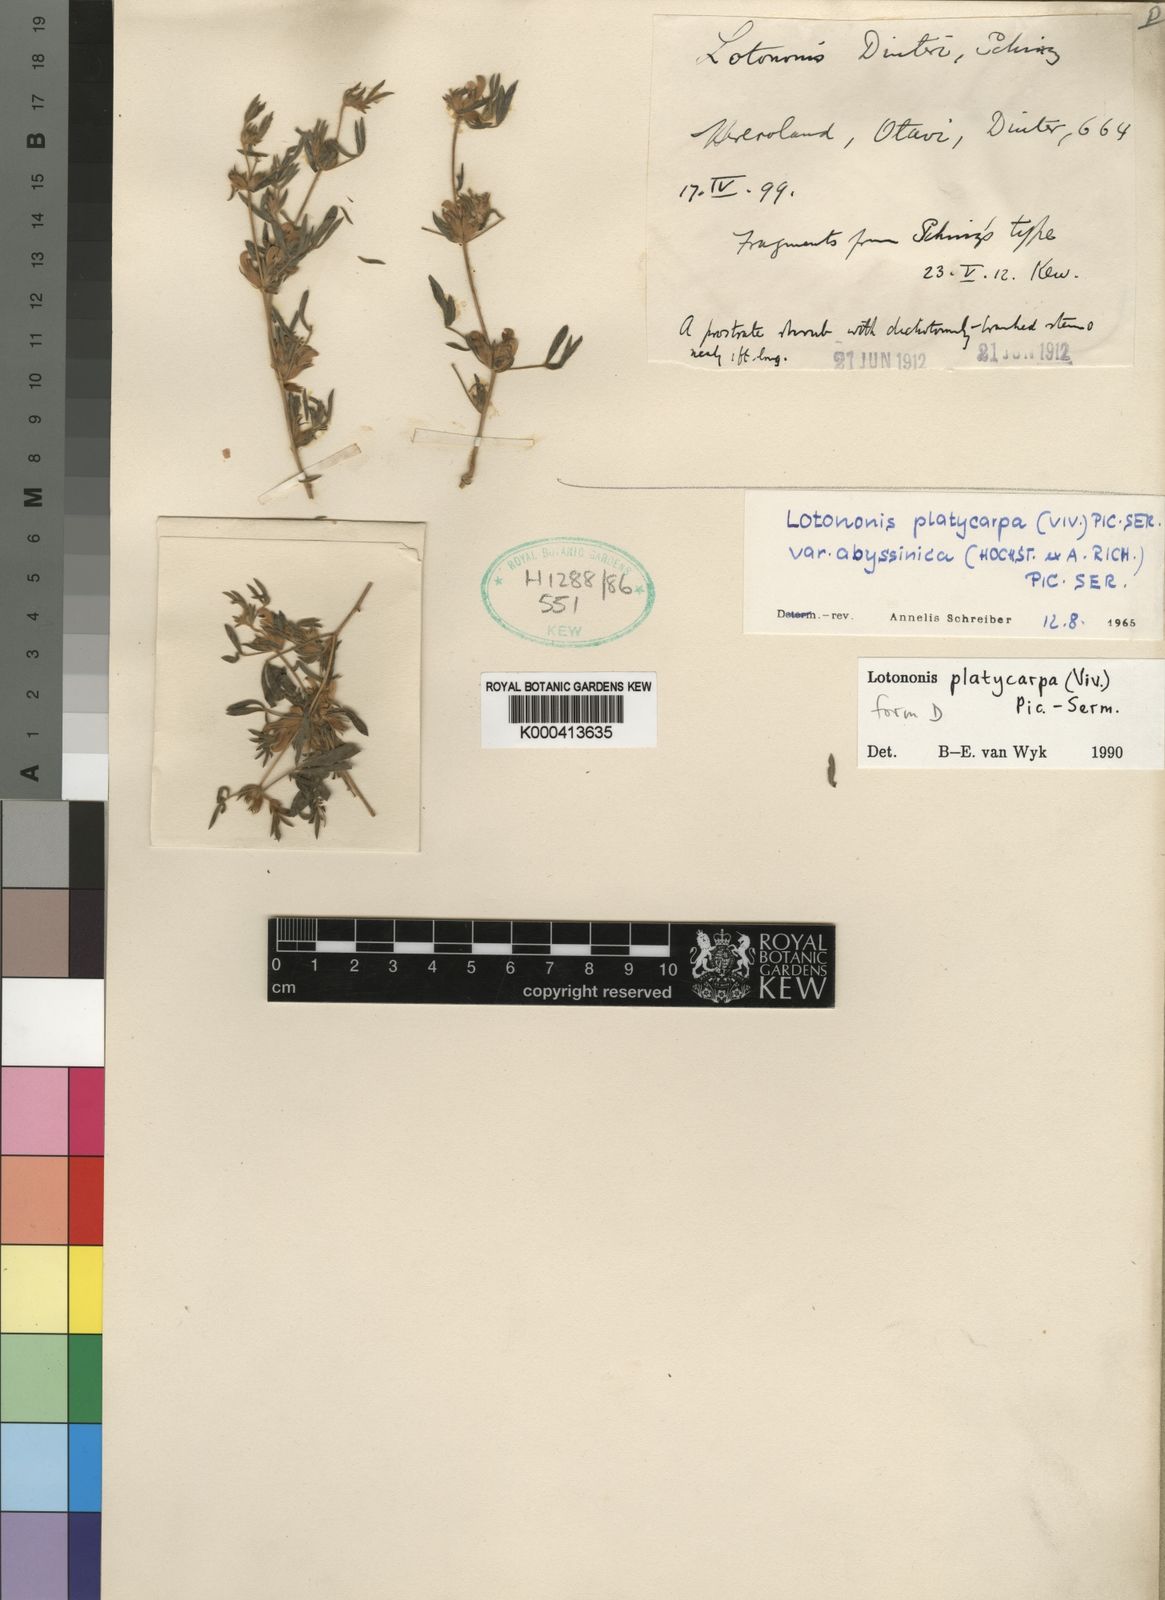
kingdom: Plantae
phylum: Tracheophyta
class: Magnoliopsida
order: Fabales
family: Fabaceae
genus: Leobordea
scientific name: Leobordea platycarpa
